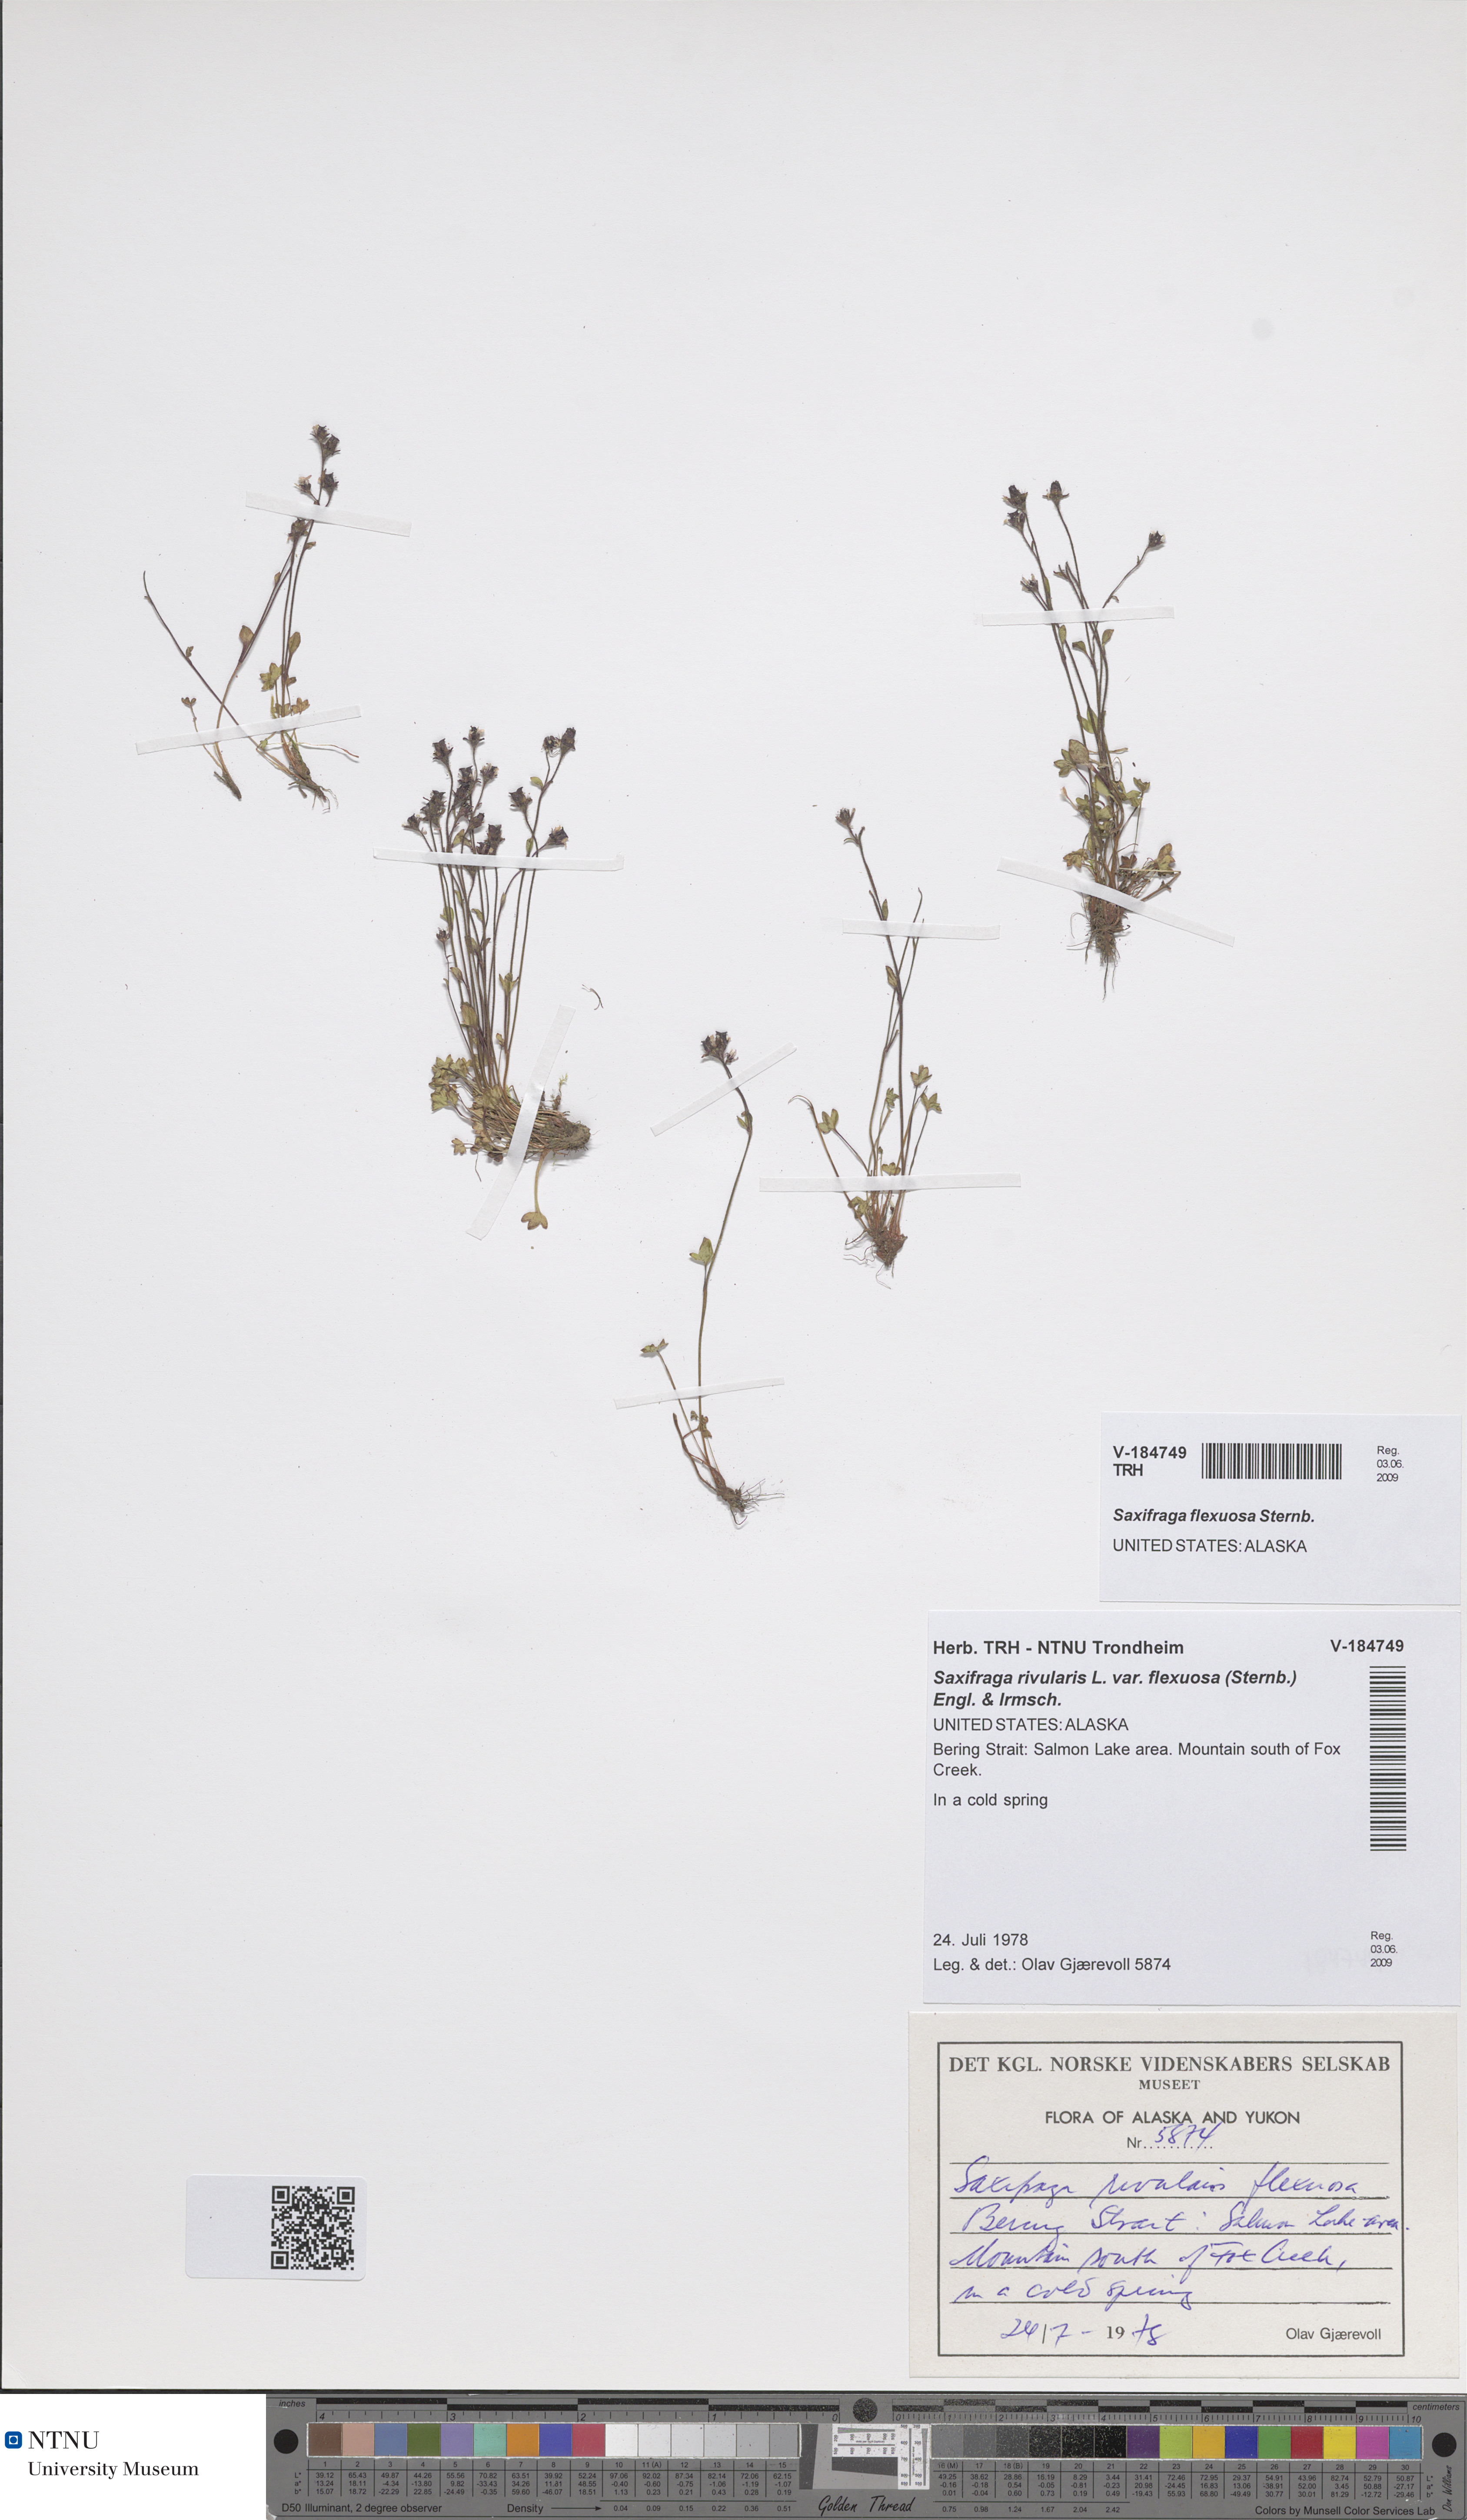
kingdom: Plantae
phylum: Tracheophyta
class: Magnoliopsida
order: Saxifragales
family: Saxifragaceae
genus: Saxifraga
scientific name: Saxifraga hyperborea
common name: Arctic saxifrage
